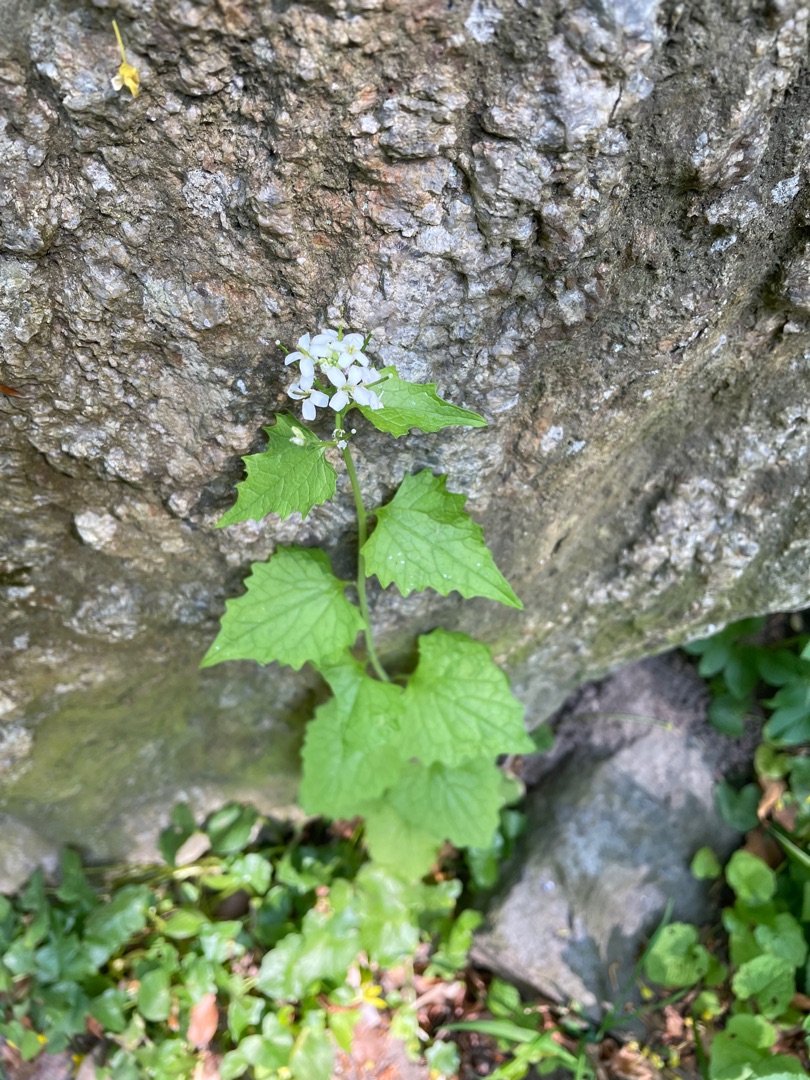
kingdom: Plantae
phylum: Tracheophyta
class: Magnoliopsida
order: Brassicales
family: Brassicaceae
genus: Alliaria
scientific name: Alliaria petiolata
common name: Løgkarse
